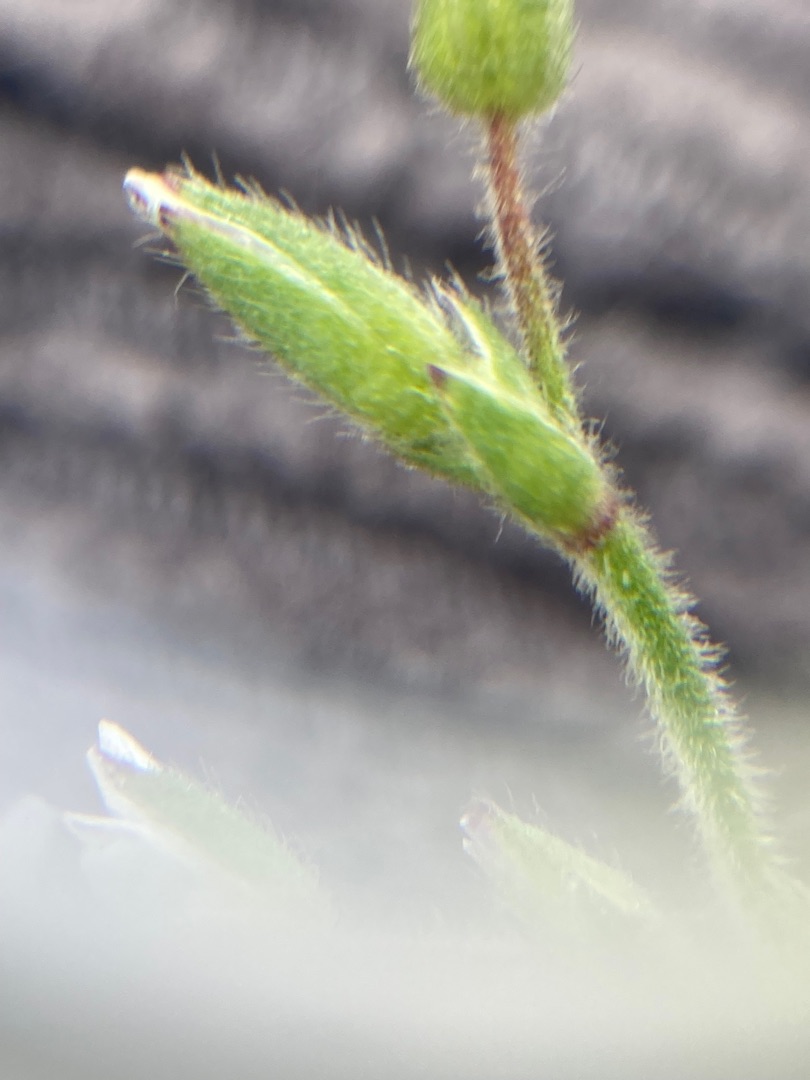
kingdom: Plantae
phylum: Tracheophyta
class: Magnoliopsida
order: Caryophyllales
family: Caryophyllaceae
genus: Cerastium
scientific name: Cerastium fontanum
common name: Almindelig hønsetarm
